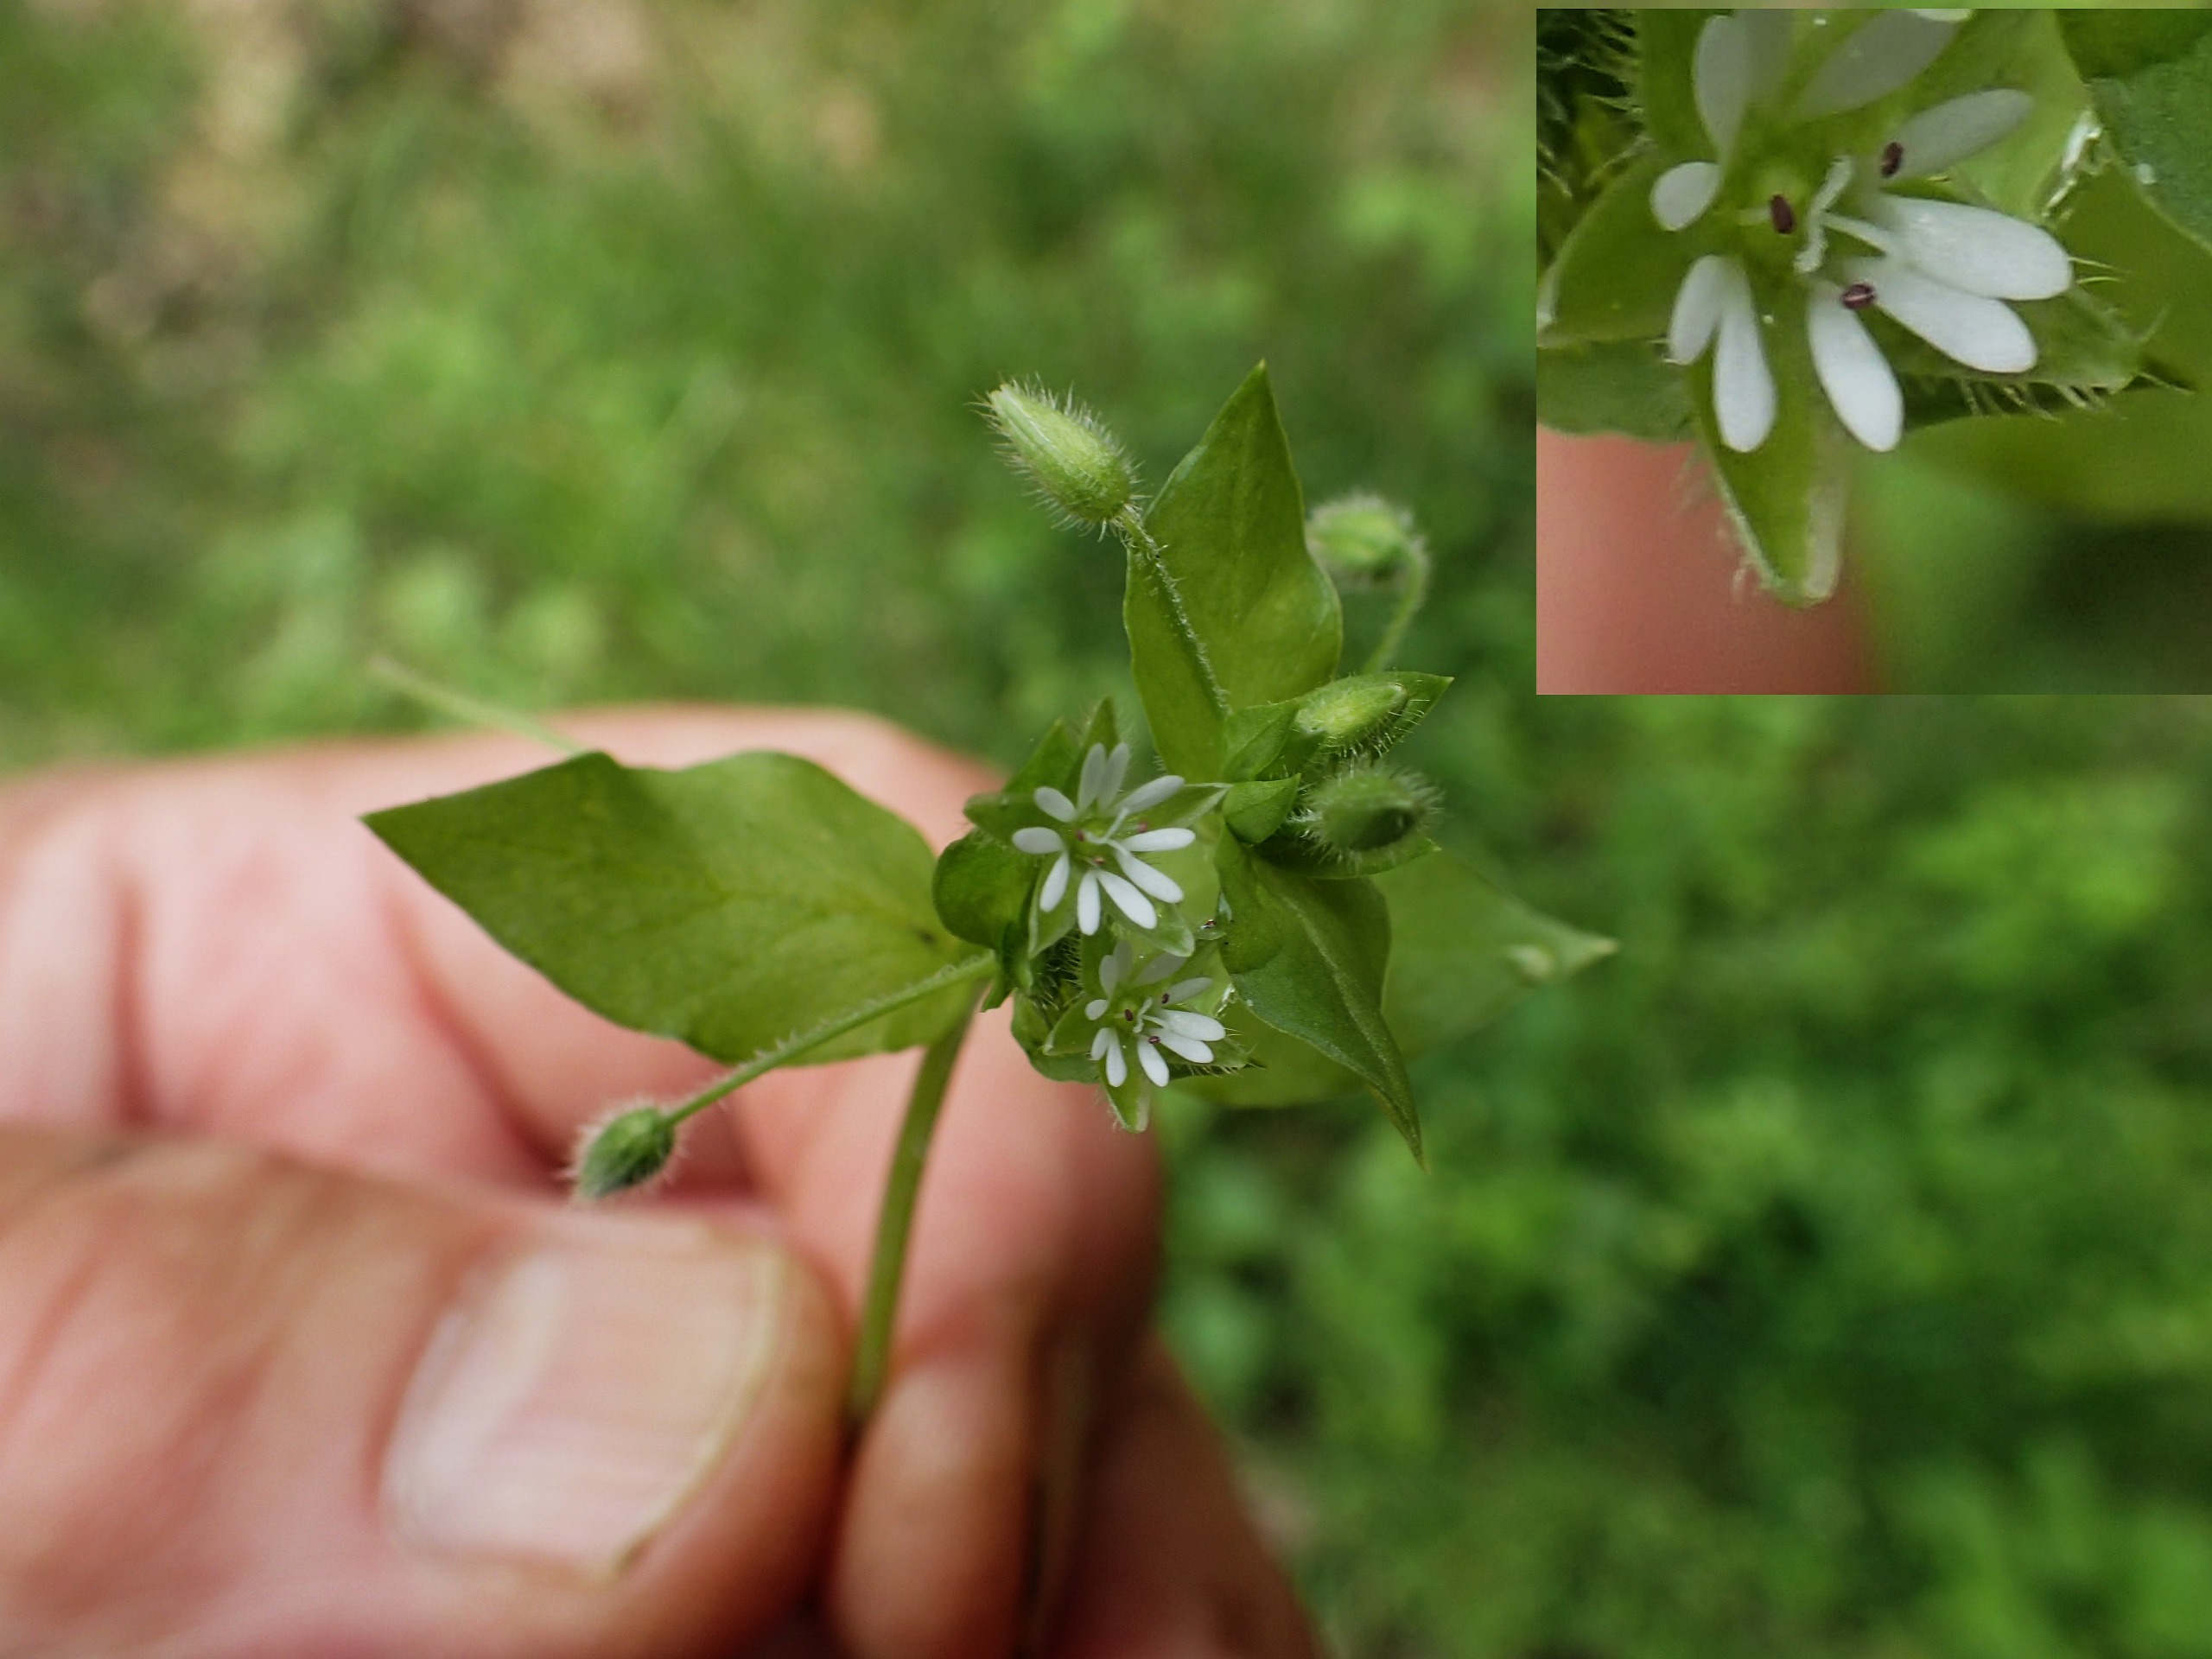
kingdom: Plantae
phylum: Tracheophyta
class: Magnoliopsida
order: Caryophyllales
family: Caryophyllaceae
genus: Stellaria
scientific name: Stellaria media
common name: Almindelig fuglegræs
